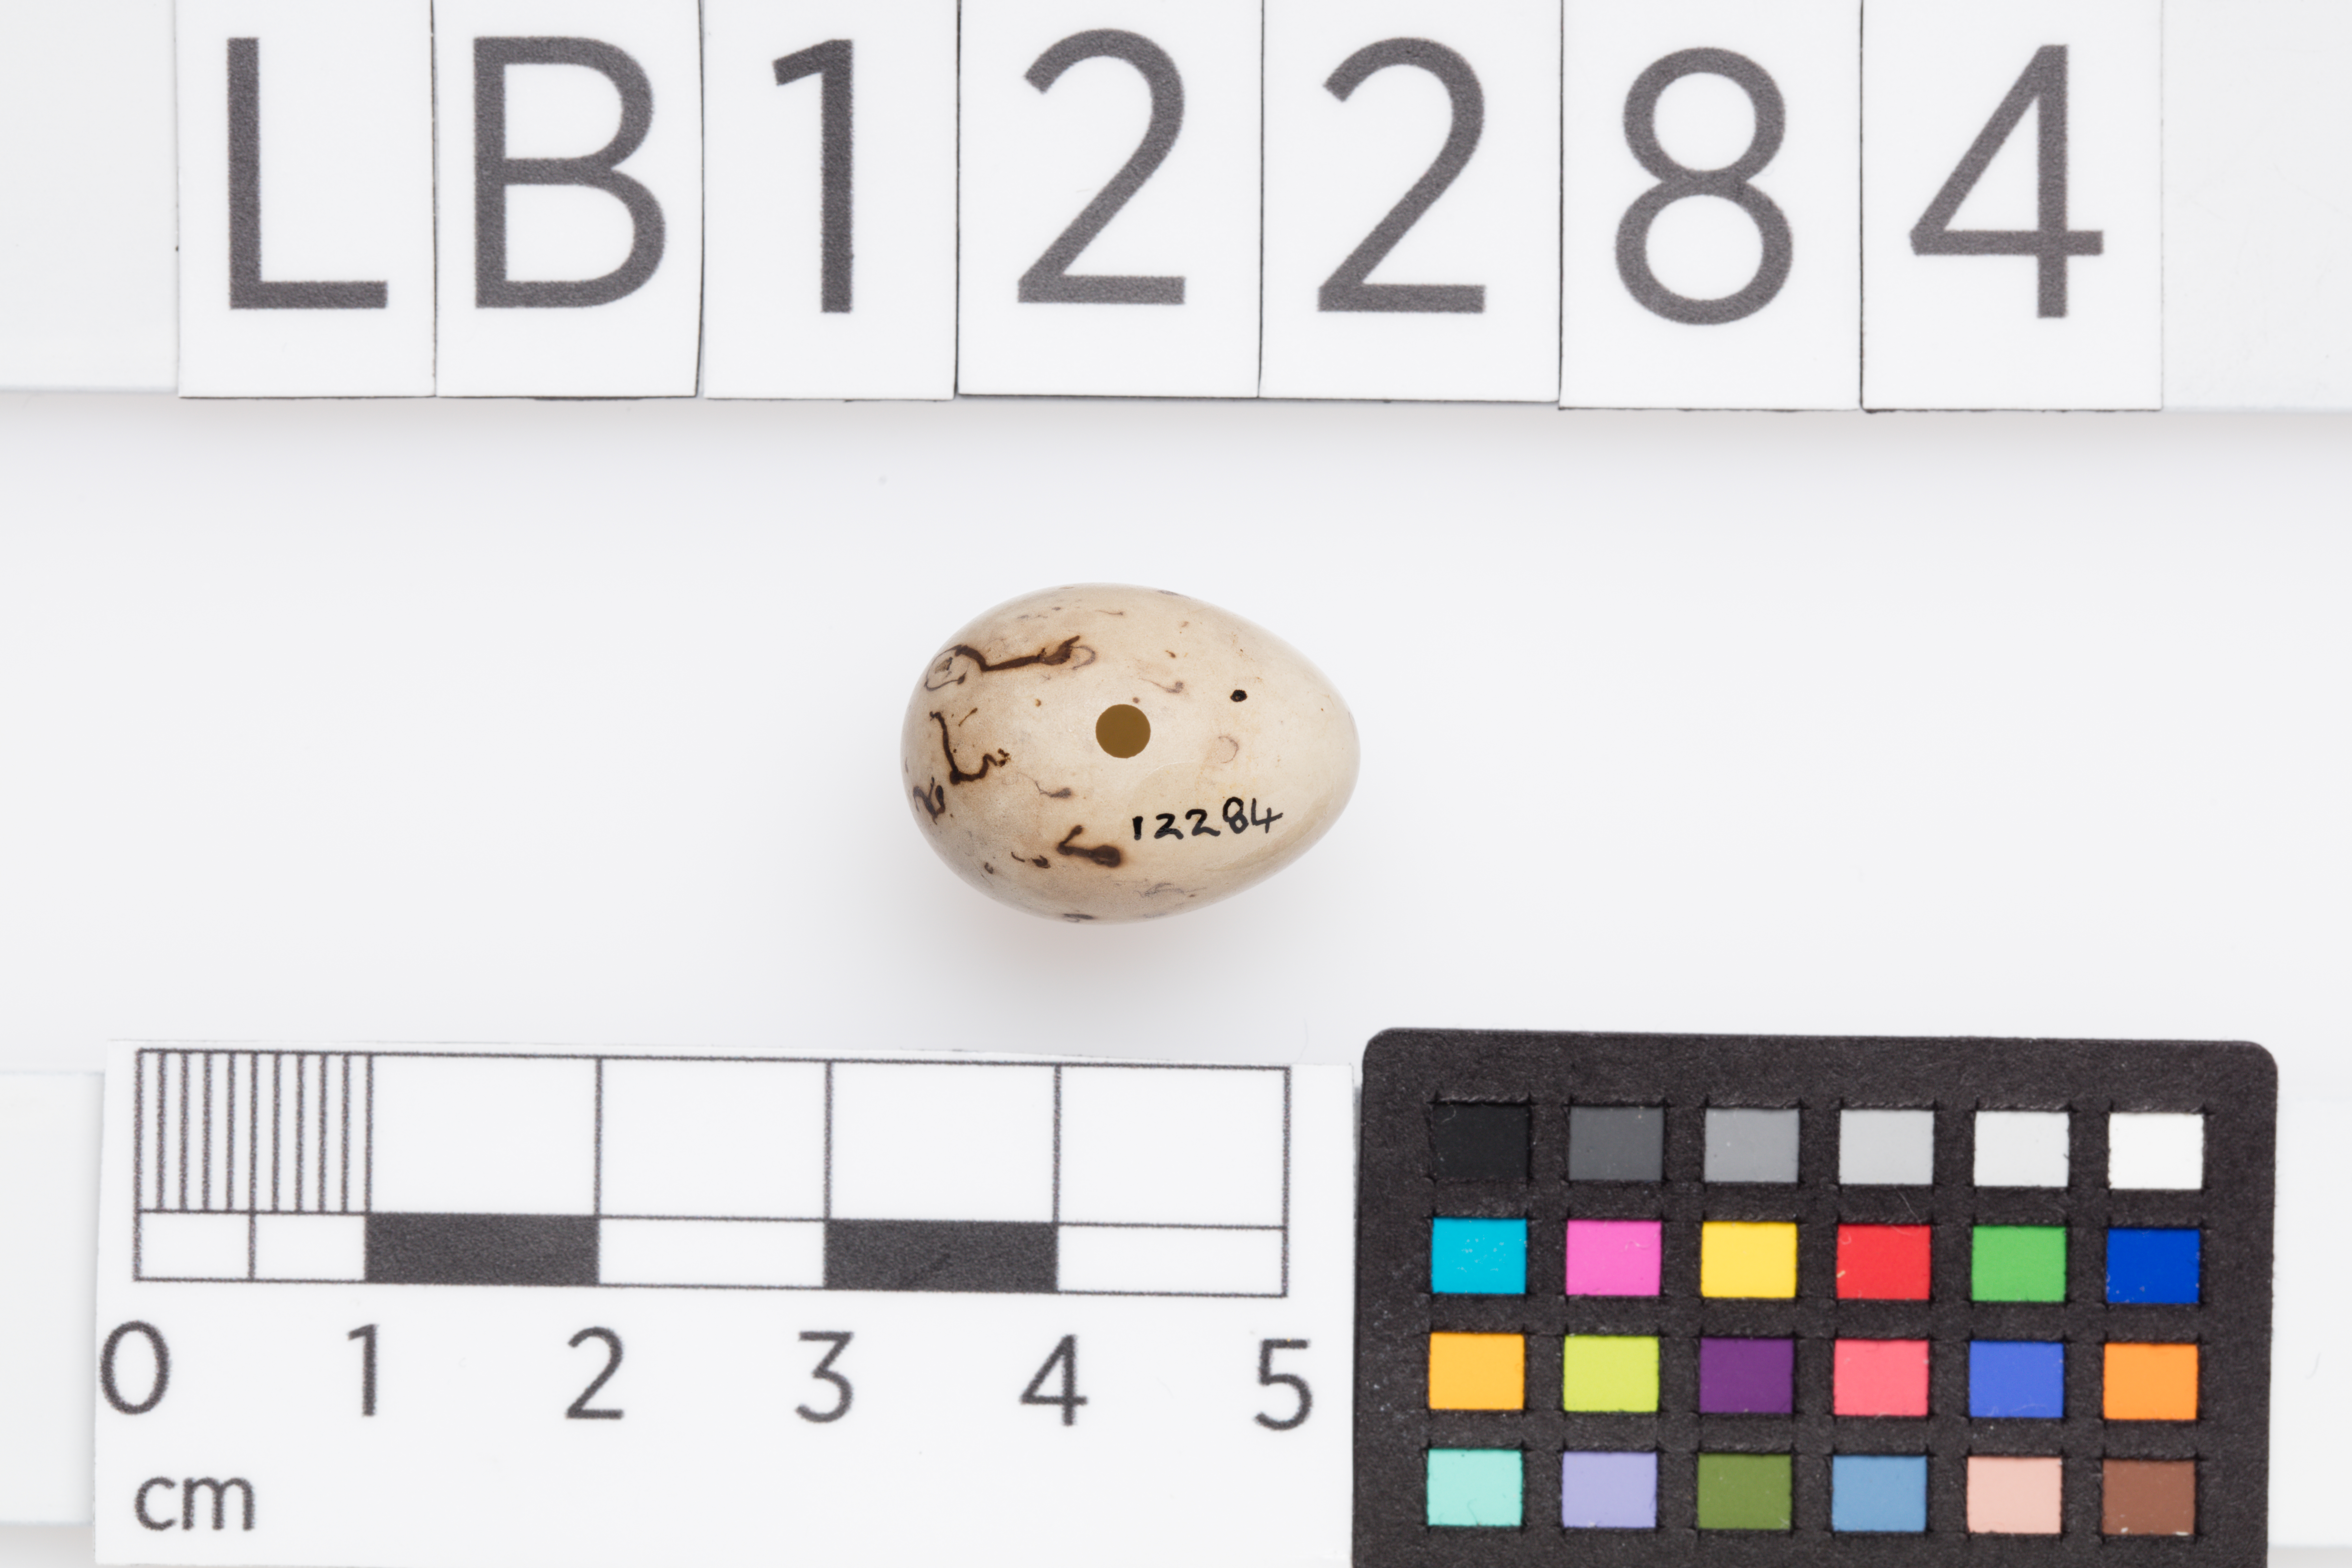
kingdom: Animalia
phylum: Chordata
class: Aves
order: Passeriformes
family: Emberizidae
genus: Emberiza
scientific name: Emberiza schoeniclus
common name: Reed bunting
